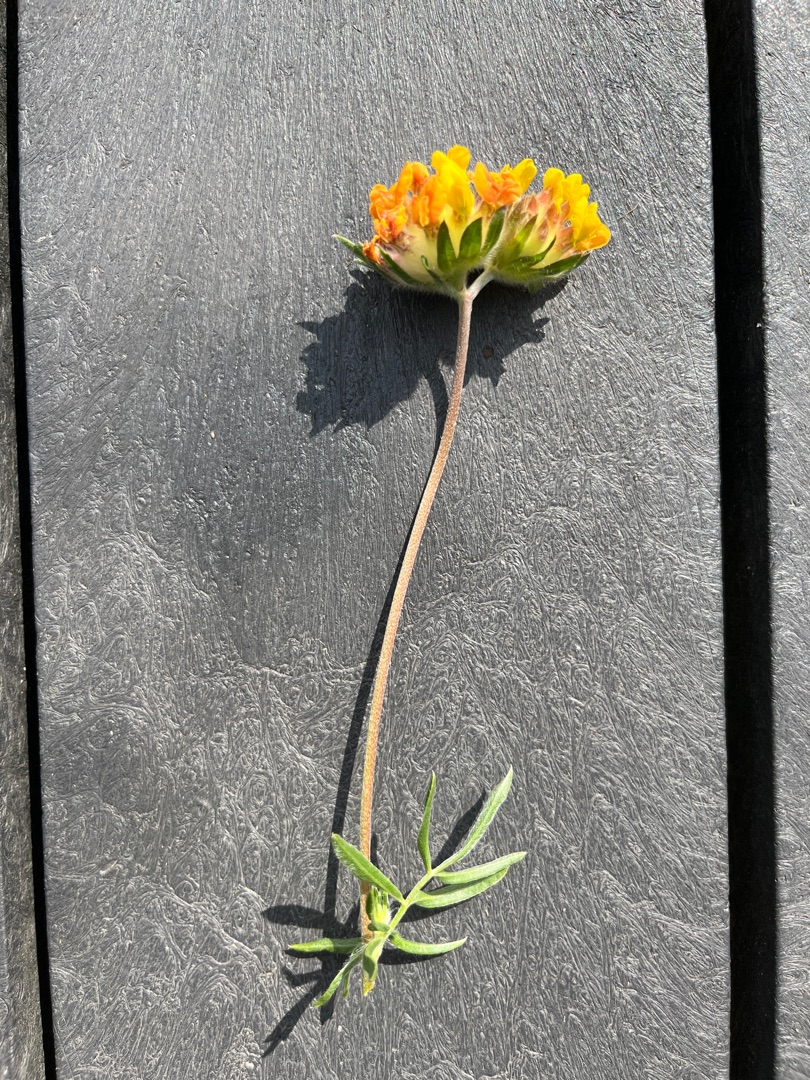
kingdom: Plantae
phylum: Tracheophyta
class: Magnoliopsida
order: Fabales
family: Fabaceae
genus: Anthyllis
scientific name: Anthyllis vulneraria
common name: Rundbælg
